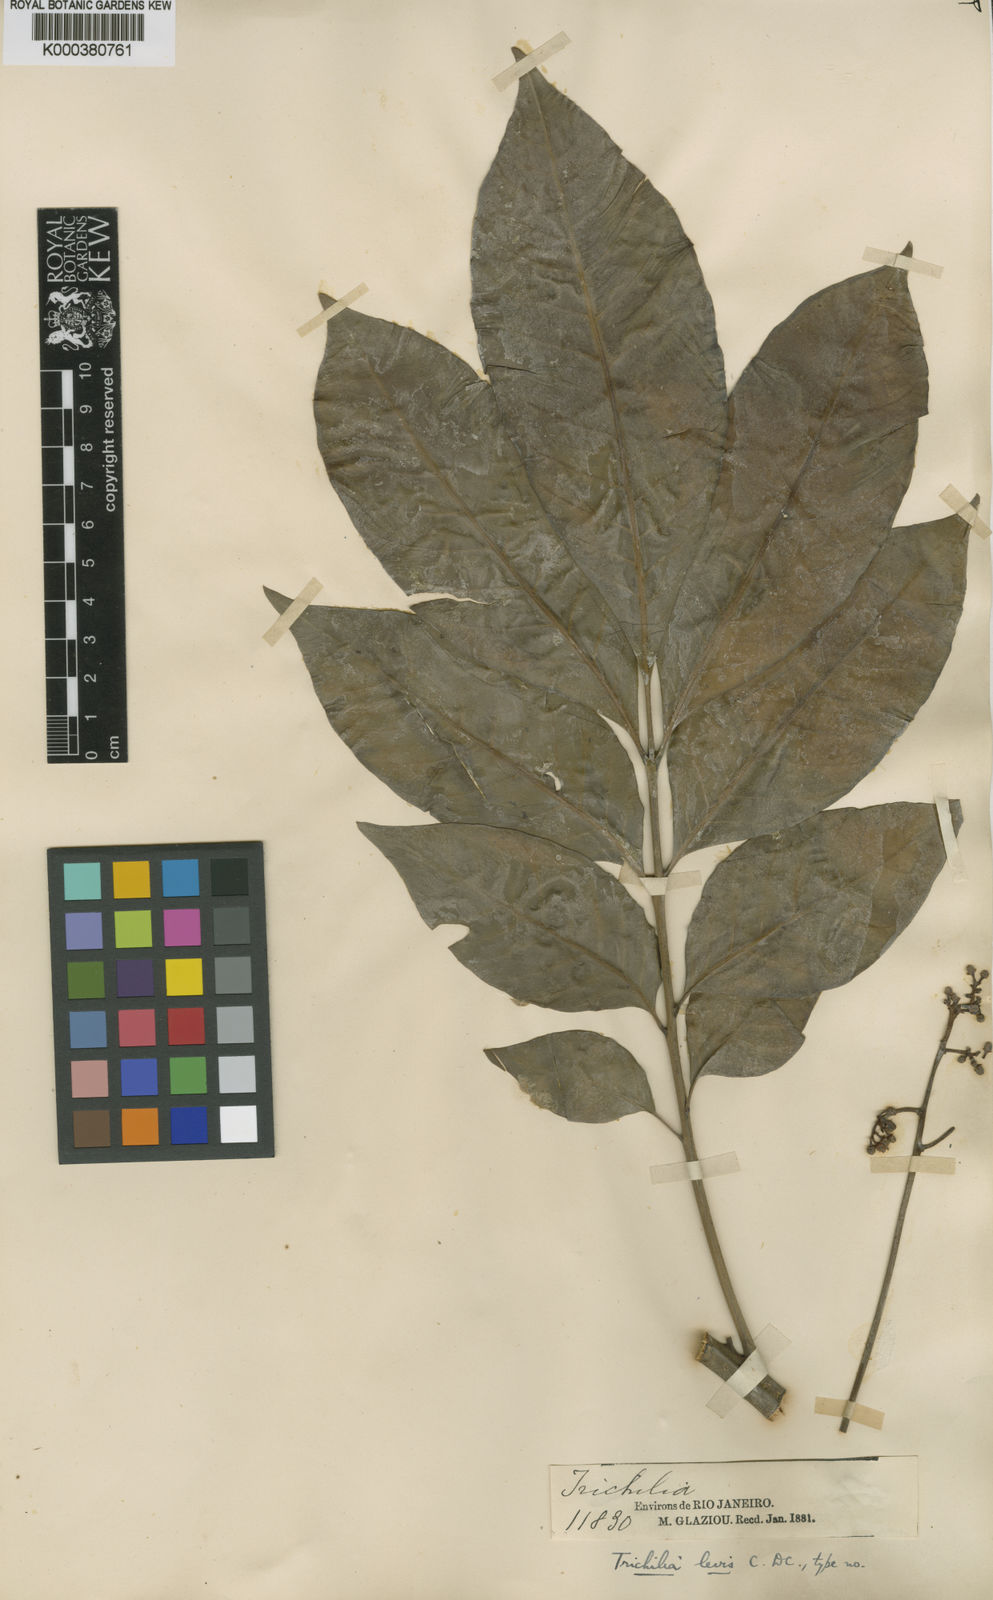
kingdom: Plantae
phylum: Tracheophyta
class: Magnoliopsida
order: Sapindales
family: Meliaceae
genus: Trichilia
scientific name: Trichilia pallens
